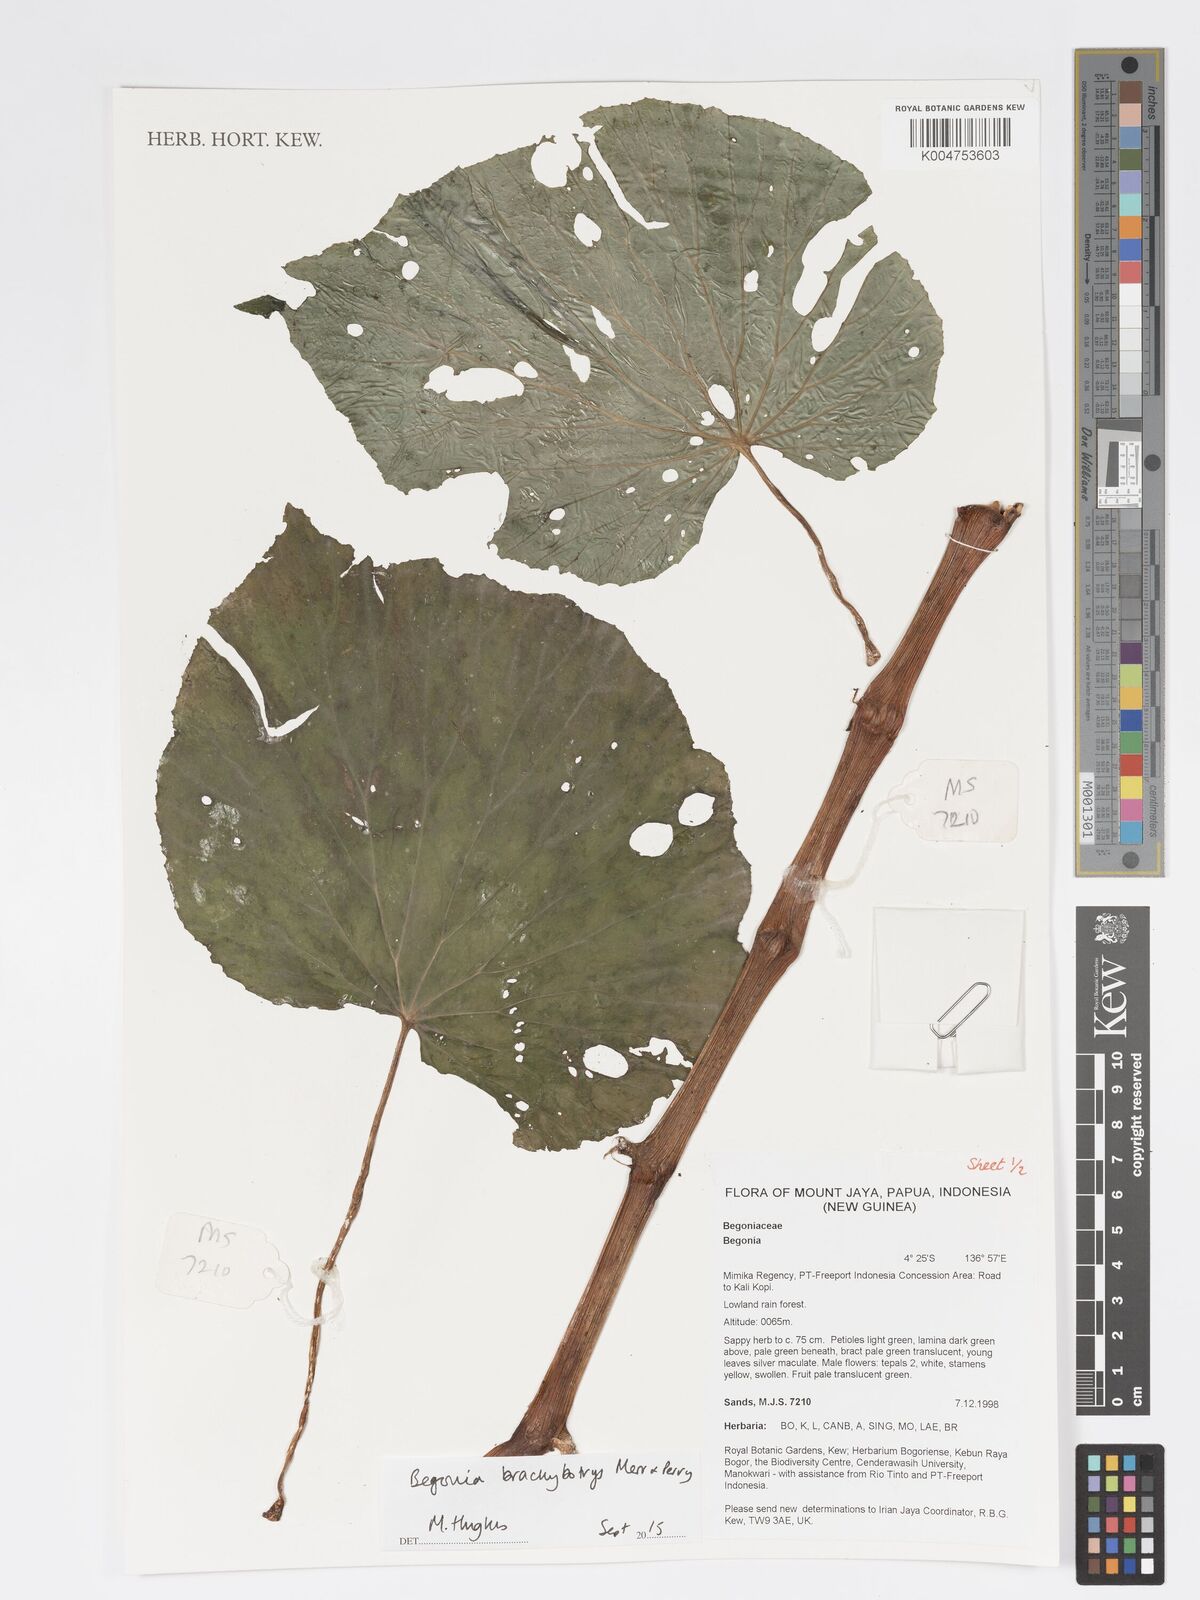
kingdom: Plantae
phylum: Tracheophyta
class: Magnoliopsida
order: Cucurbitales
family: Begoniaceae
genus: Begonia
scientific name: Begonia brachybotrys
